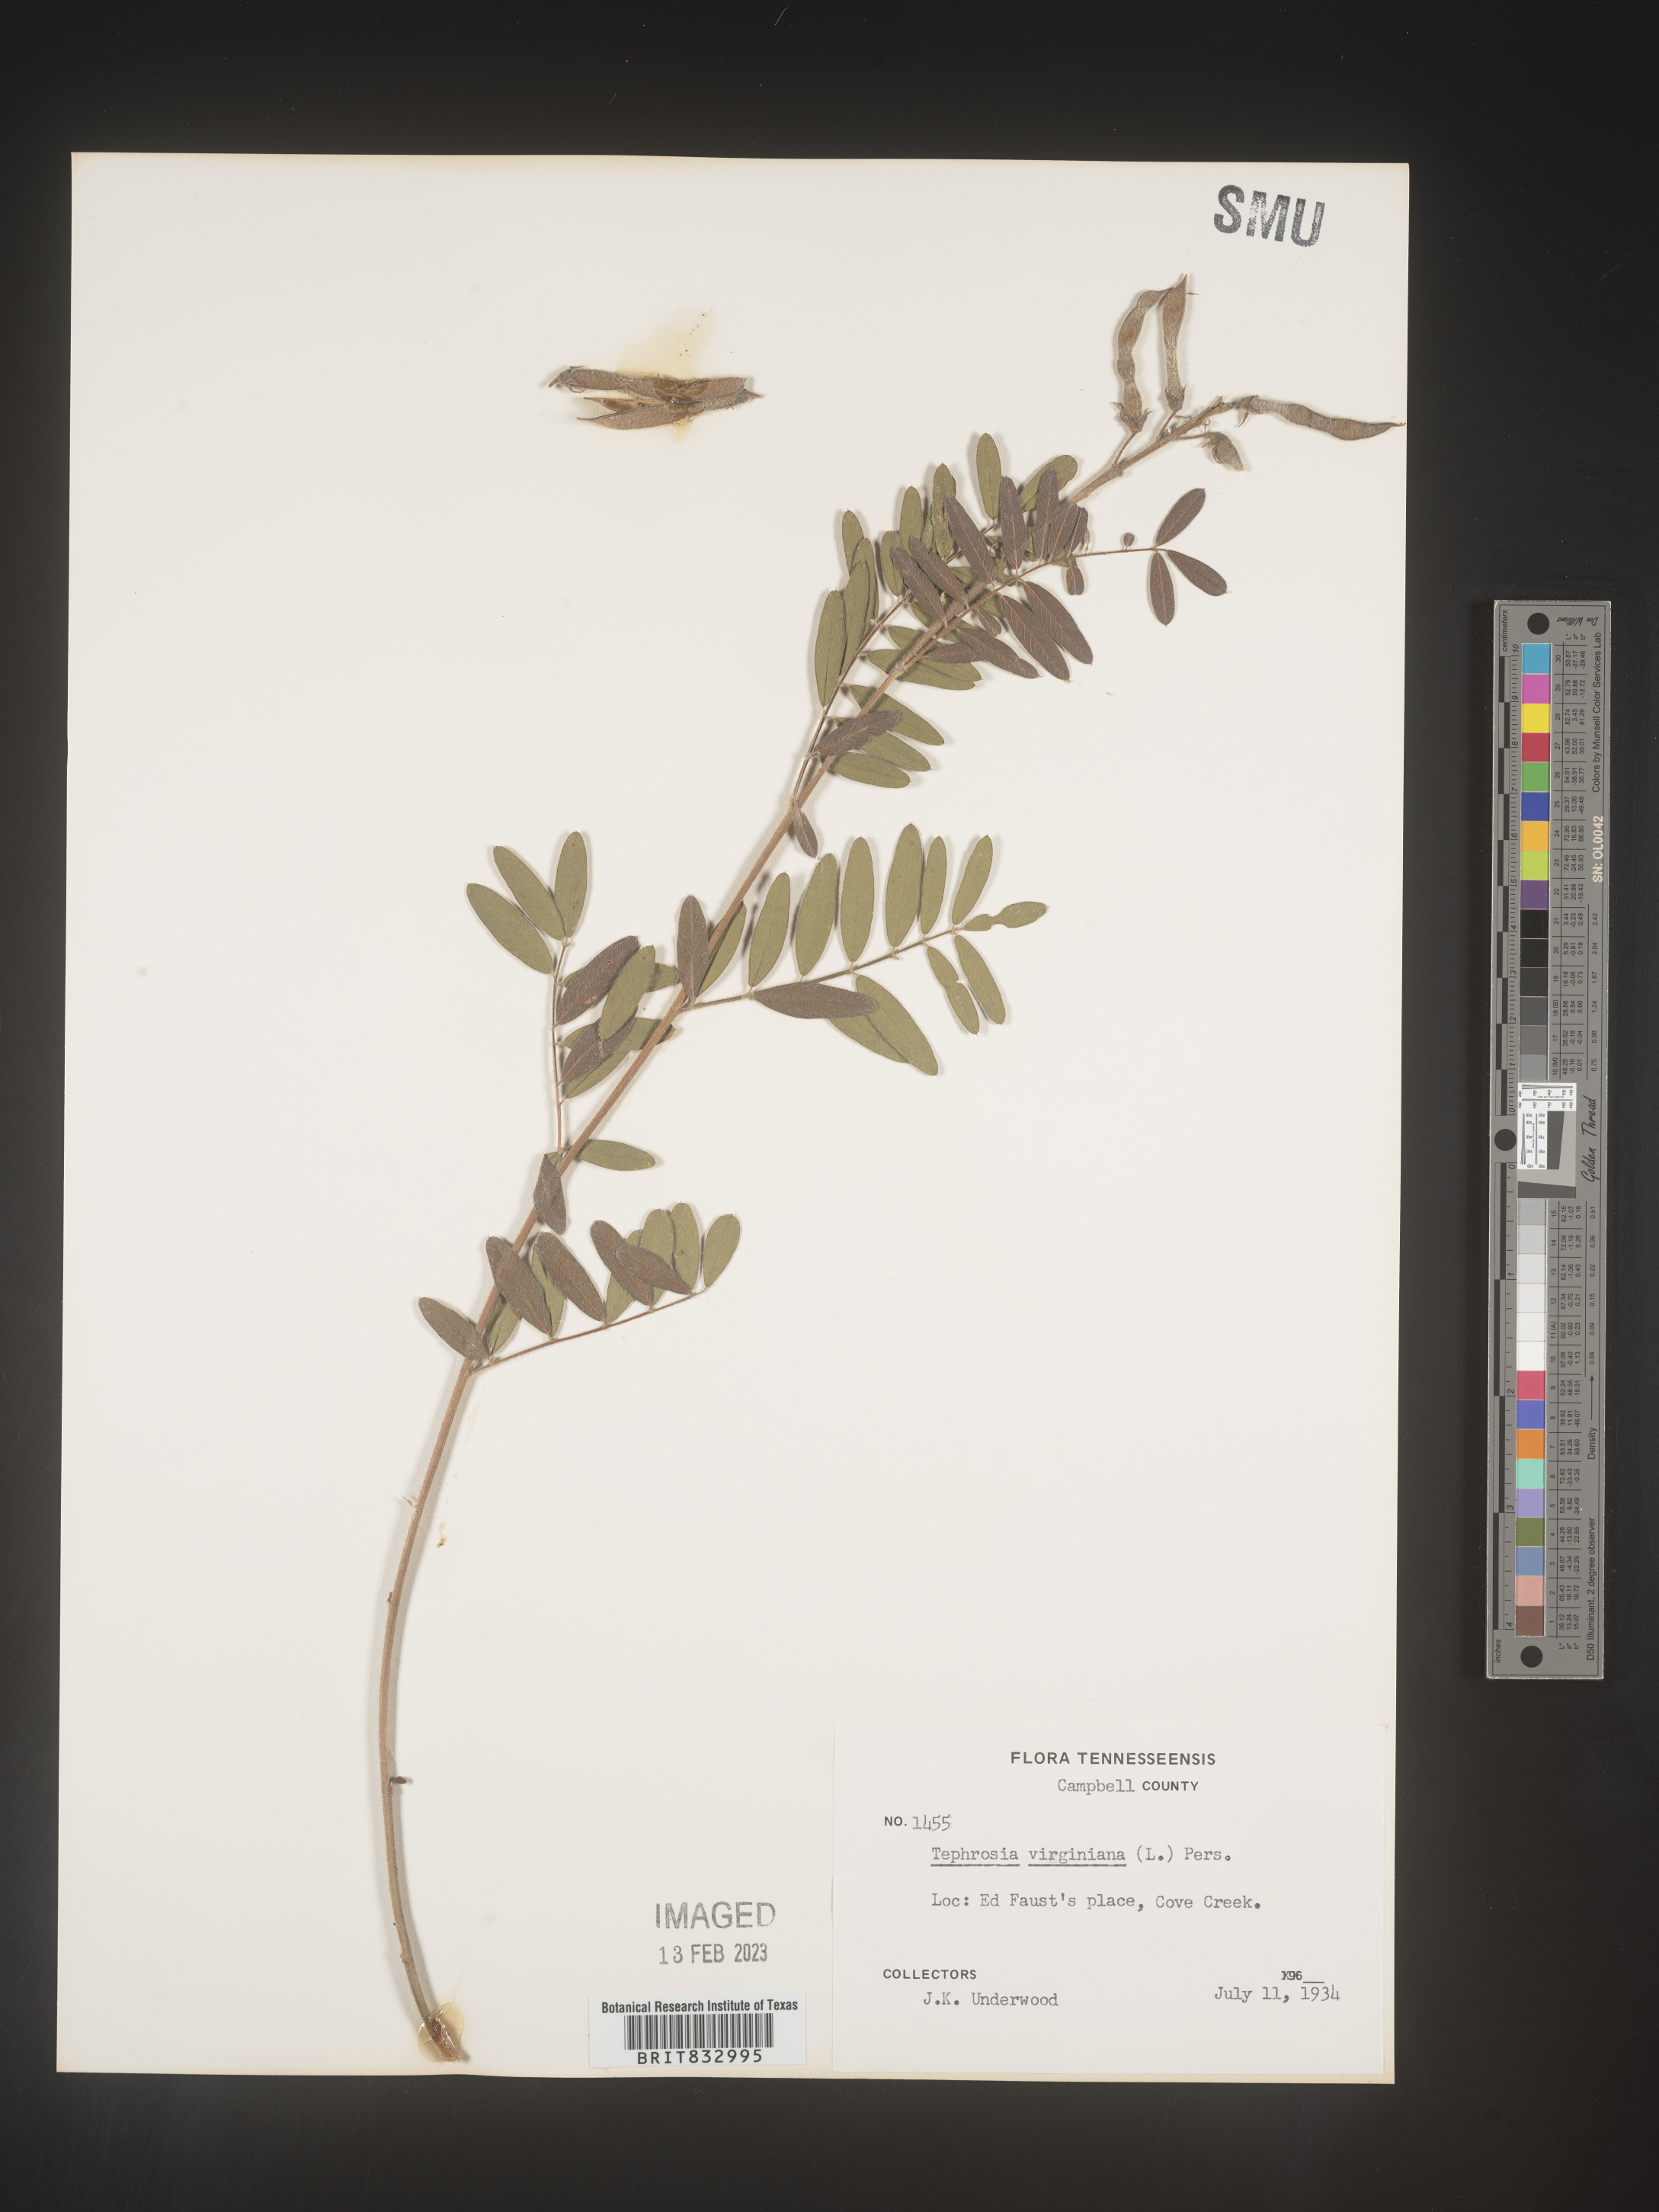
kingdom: Plantae
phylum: Tracheophyta
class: Magnoliopsida
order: Fabales
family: Fabaceae
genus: Tephrosia
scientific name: Tephrosia virginiana
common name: Rabbit-pea
